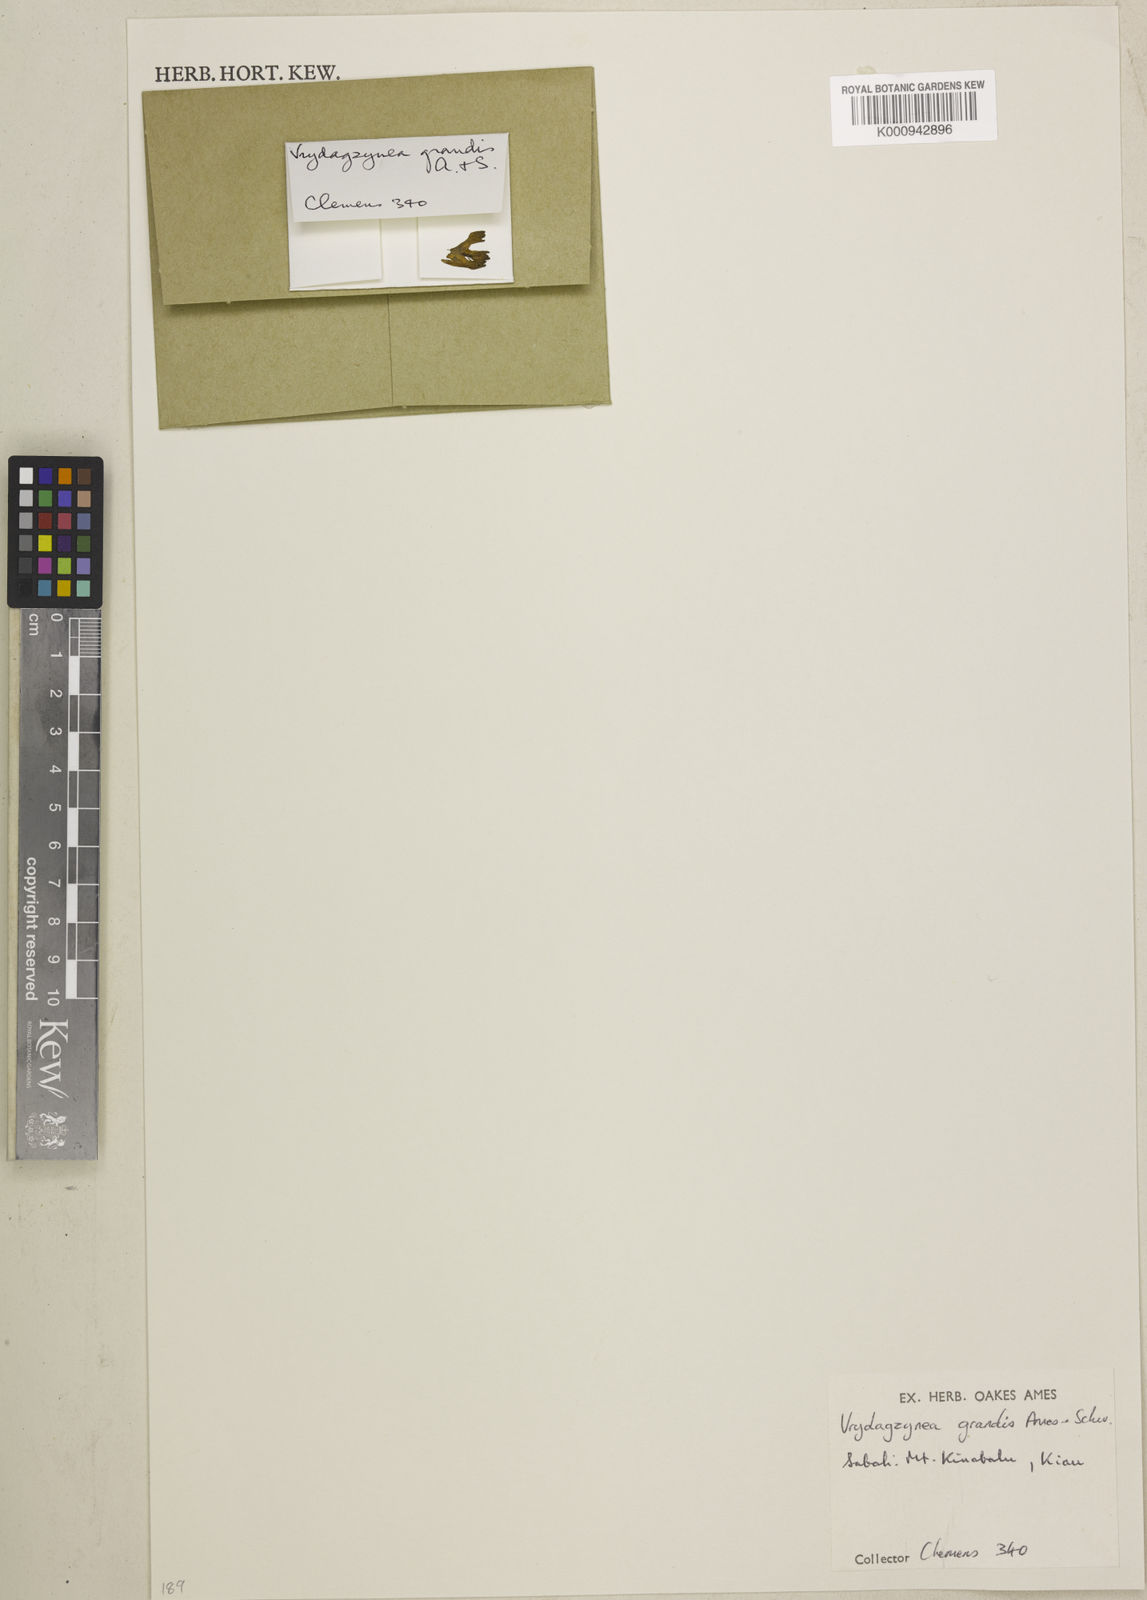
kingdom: Plantae
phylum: Tracheophyta
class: Liliopsida
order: Asparagales
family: Orchidaceae
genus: Vrydagzynea
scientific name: Vrydagzynea grandis
